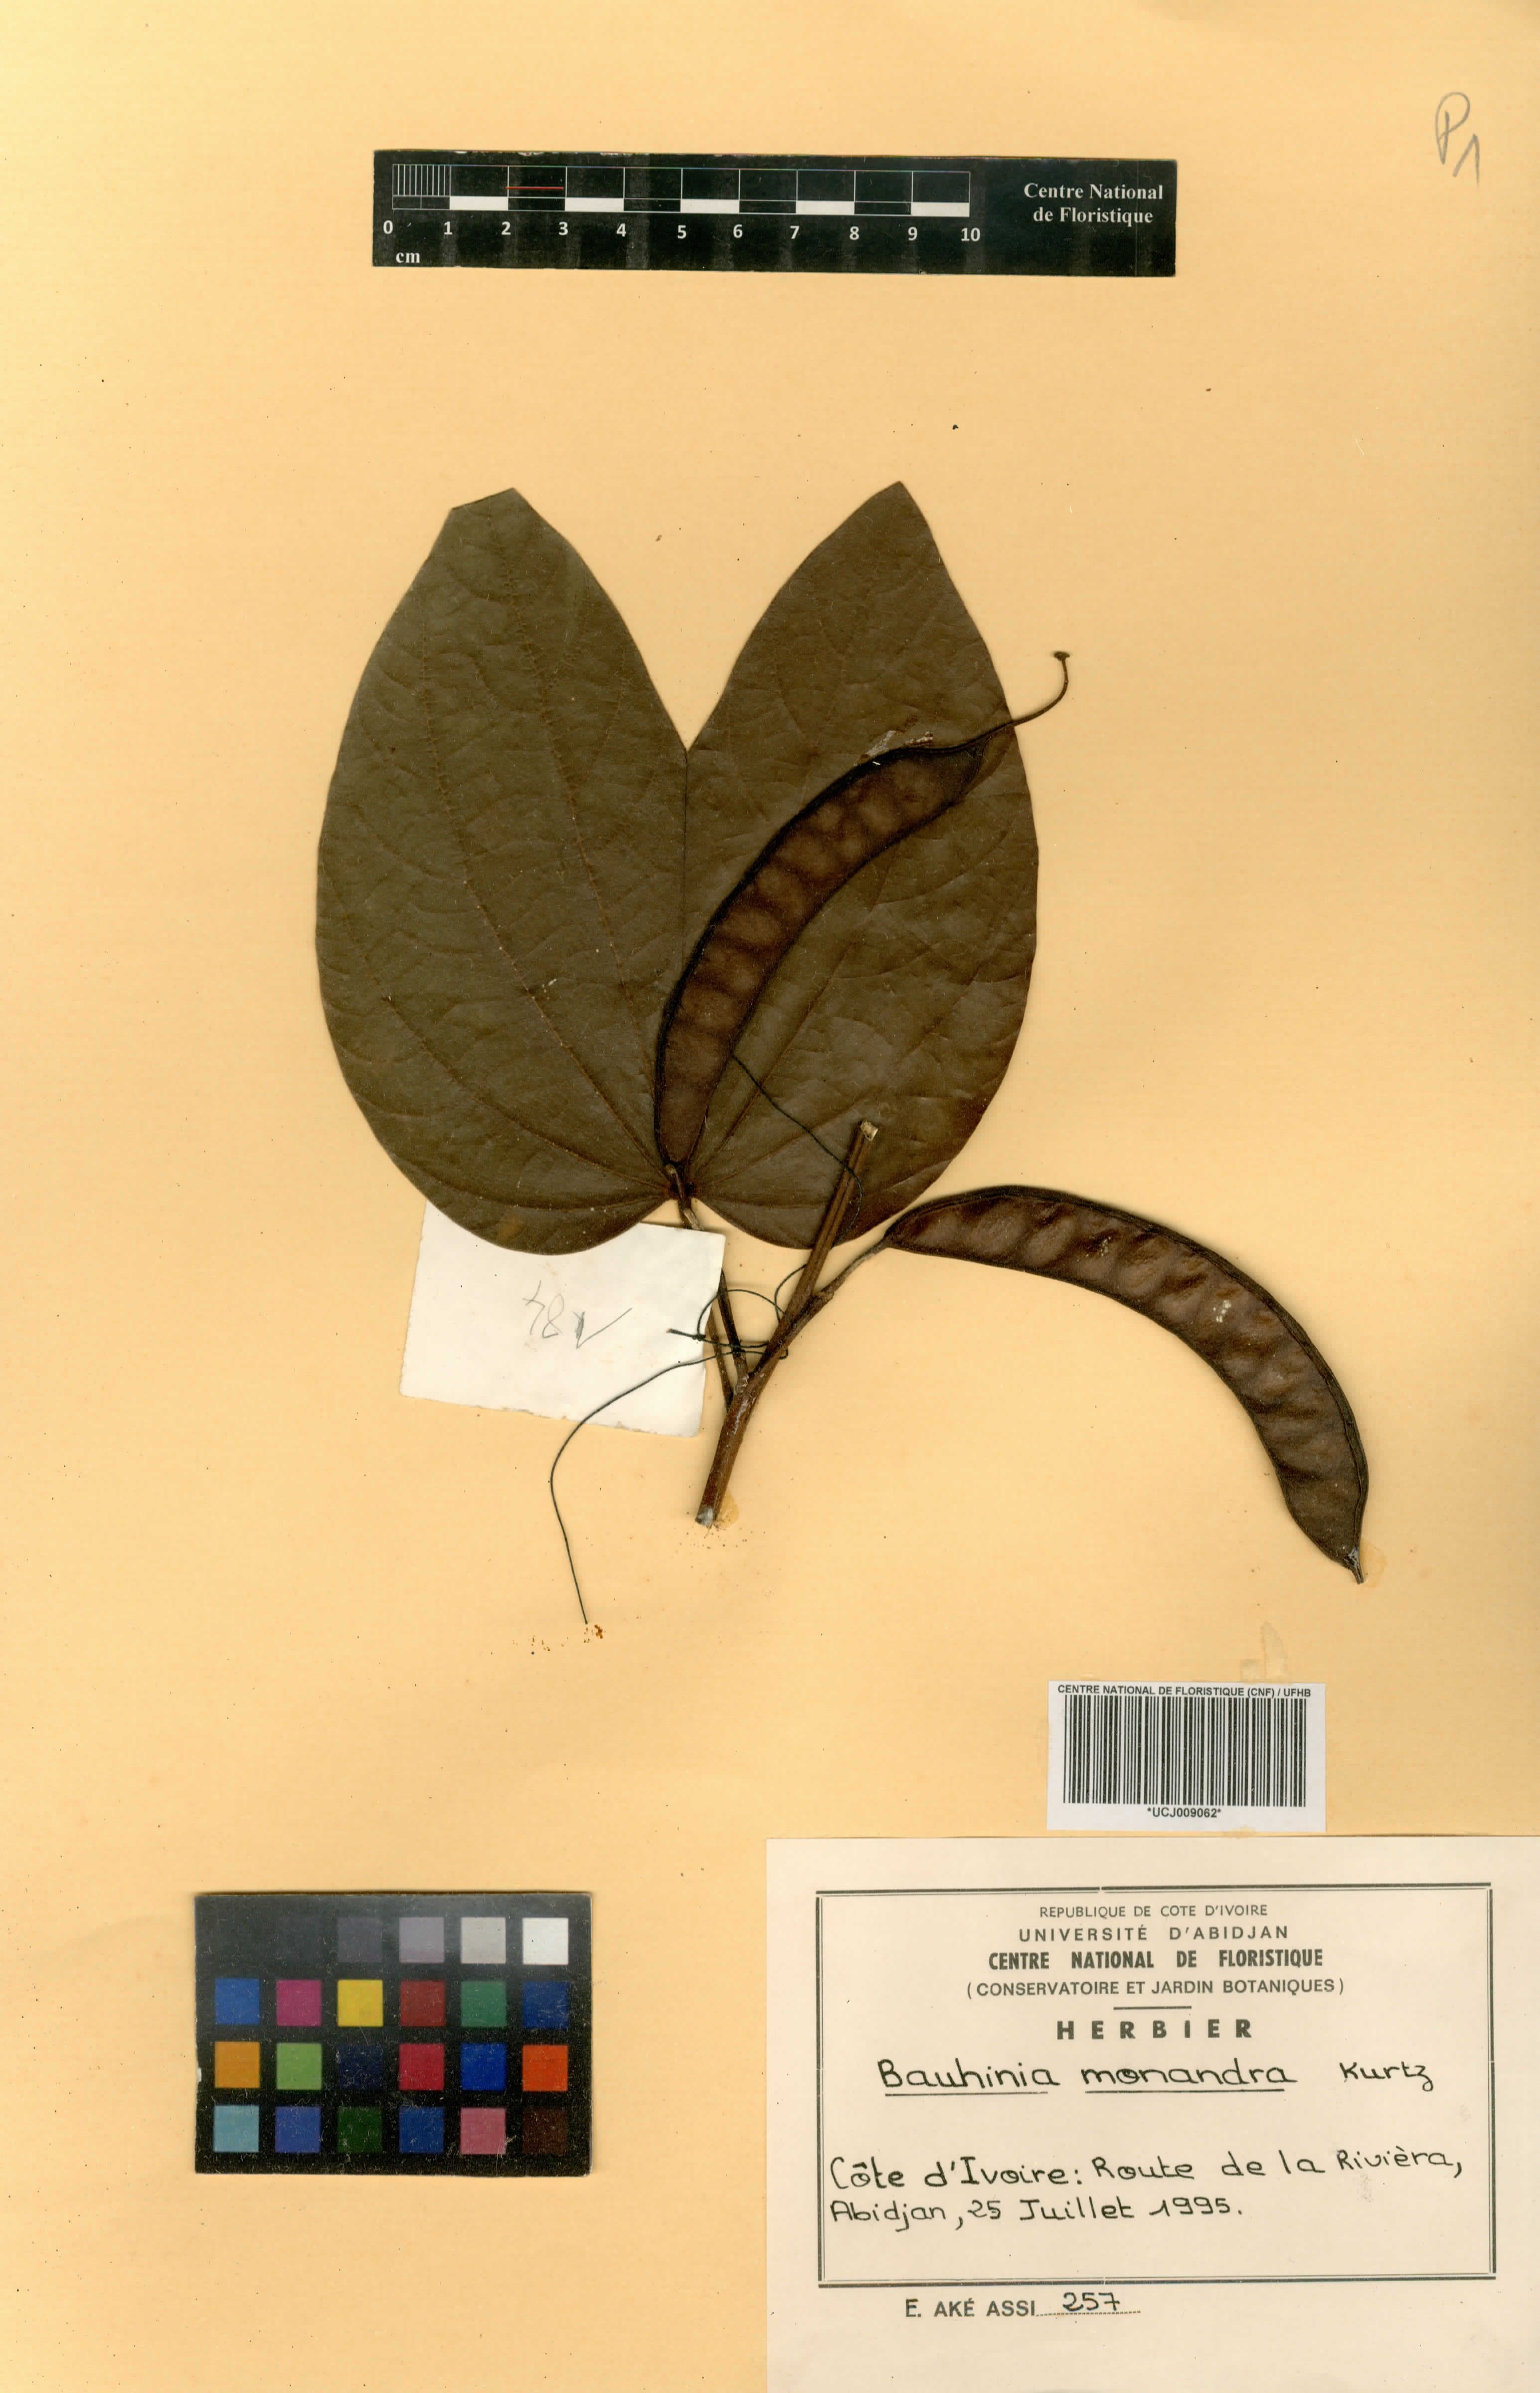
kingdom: Plantae
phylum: Tracheophyta
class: Magnoliopsida
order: Fabales
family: Fabaceae
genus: Bauhinia
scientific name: Bauhinia monandra
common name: Napoleon's plume
